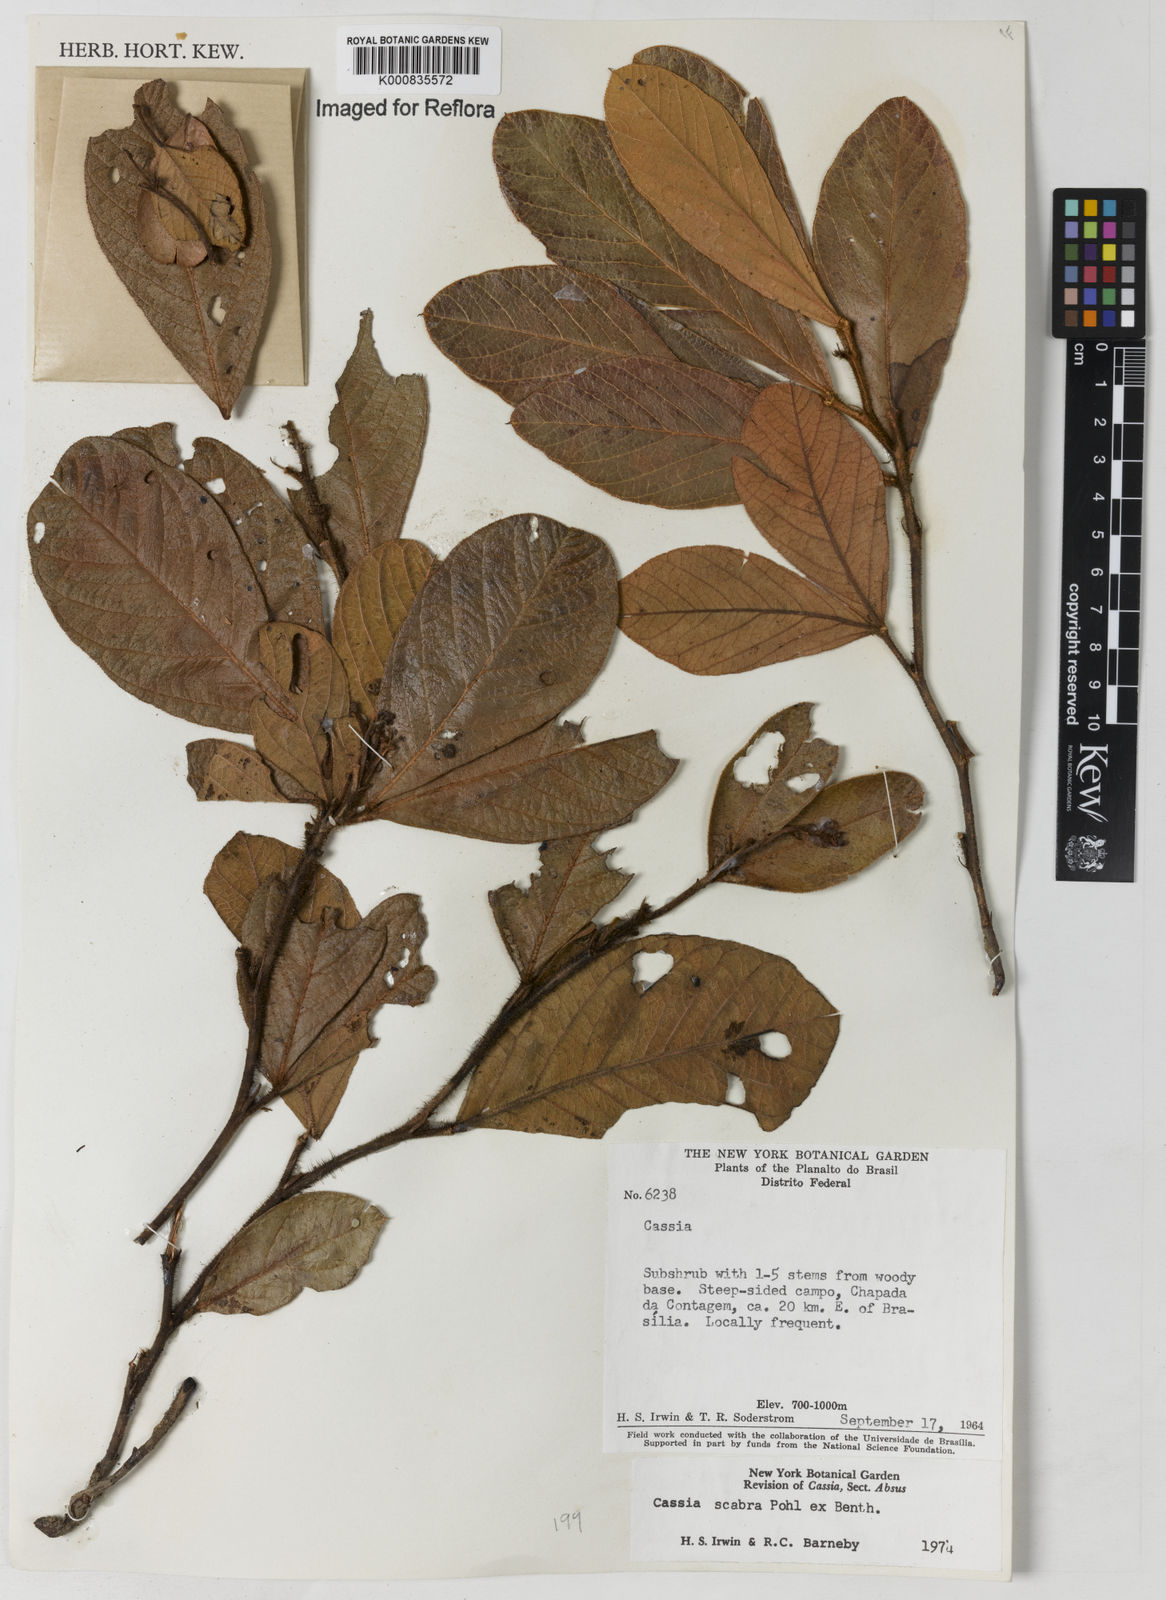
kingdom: Plantae
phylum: Tracheophyta
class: Magnoliopsida
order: Fabales
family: Fabaceae
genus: Chamaecrista
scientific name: Chamaecrista scabra
